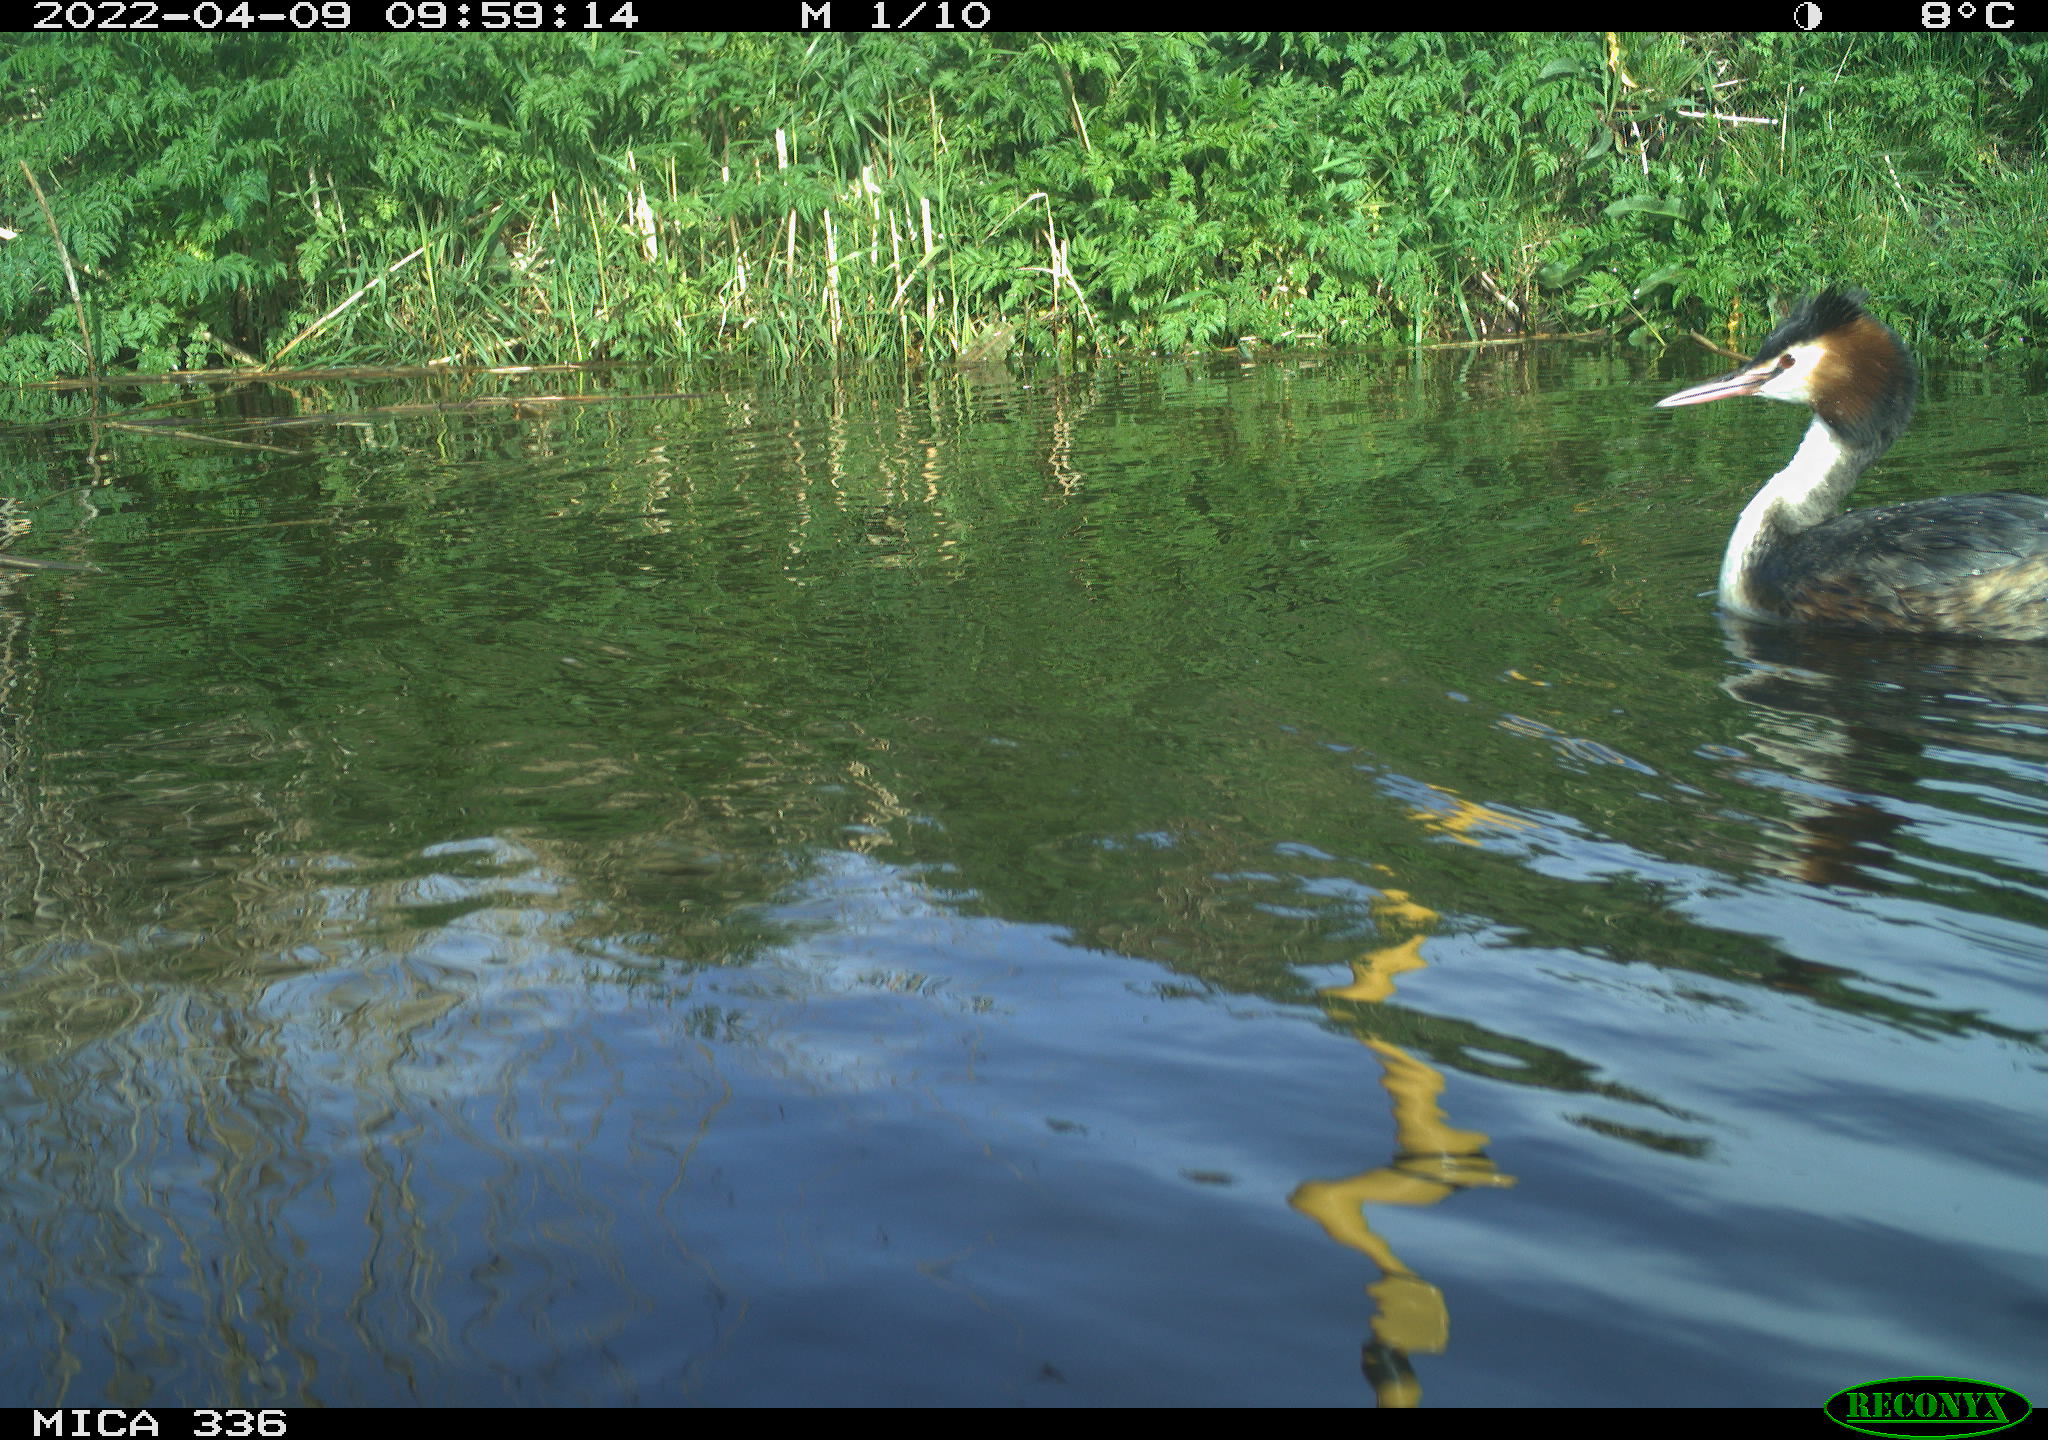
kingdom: Animalia
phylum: Chordata
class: Aves
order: Podicipediformes
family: Podicipedidae
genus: Podiceps
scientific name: Podiceps cristatus
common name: Great crested grebe
